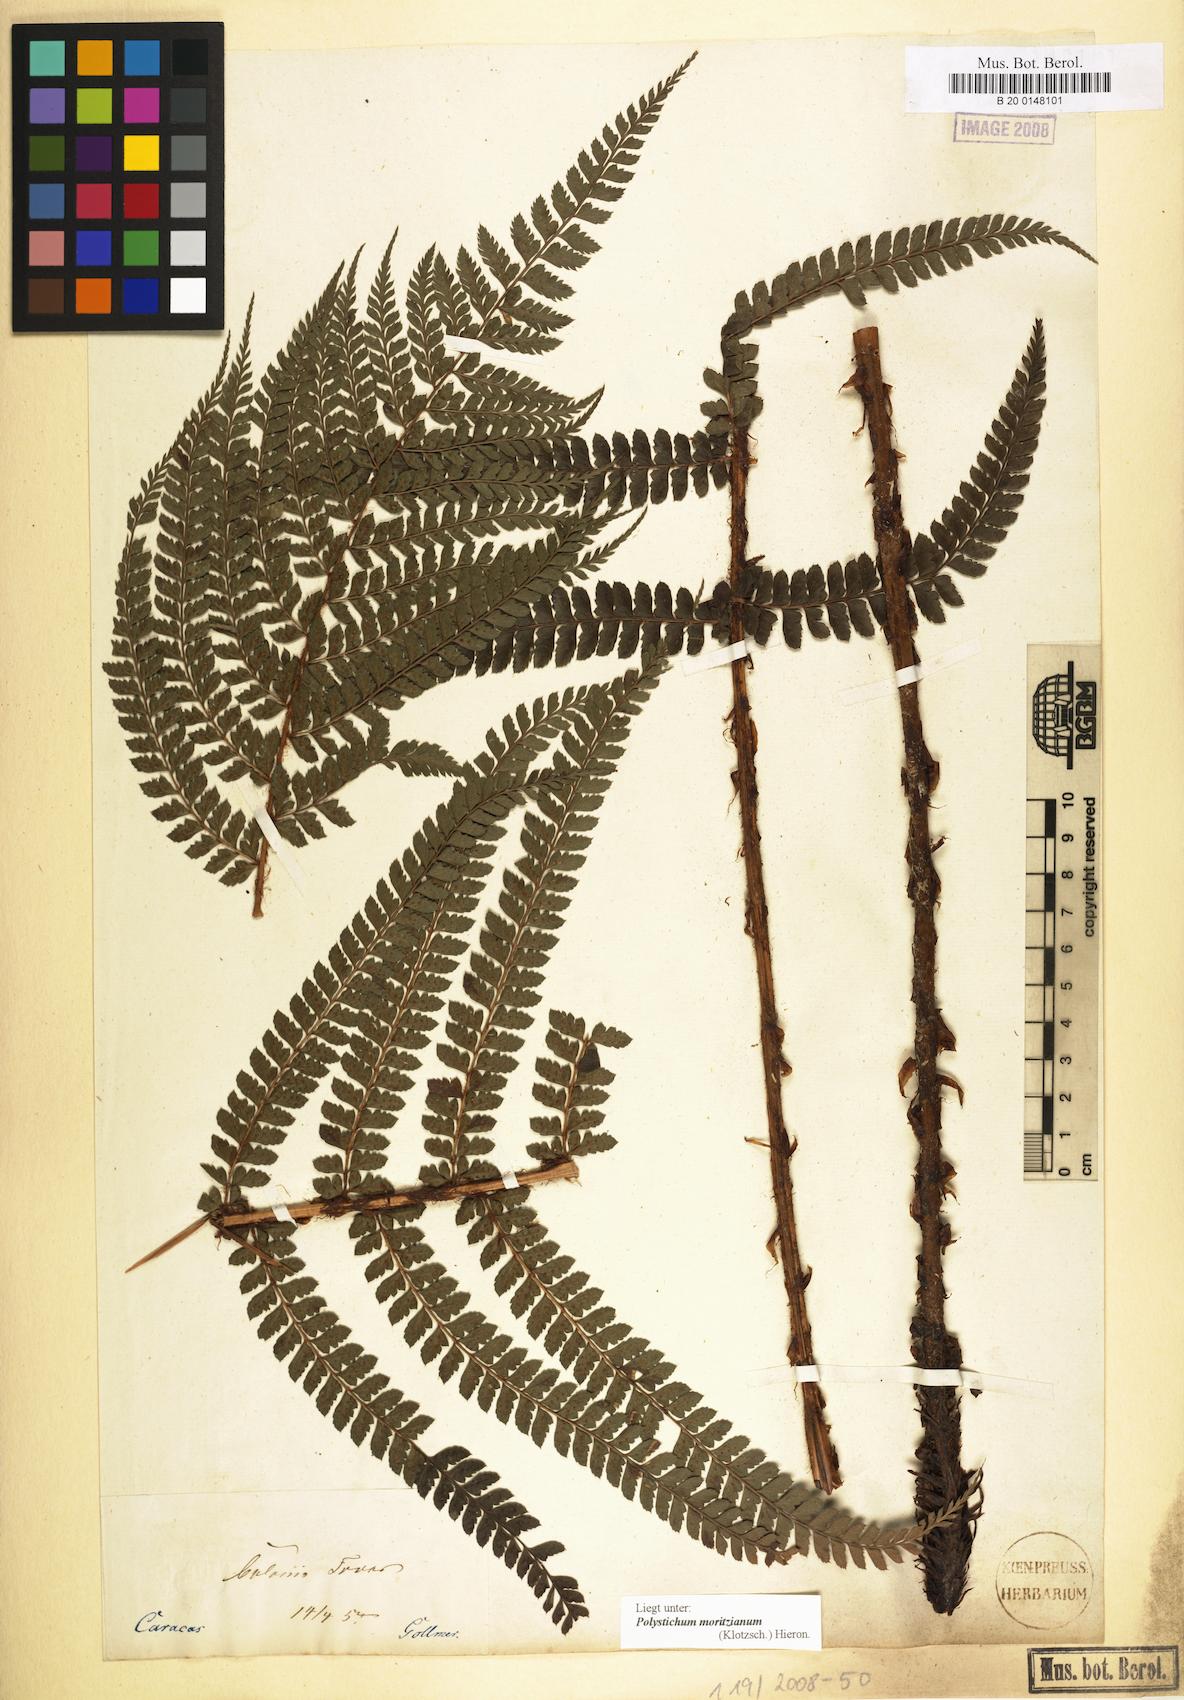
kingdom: Plantae
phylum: Tracheophyta
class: Polypodiopsida
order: Polypodiales
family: Dryopteridaceae
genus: Polystichum
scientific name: Polystichum muricatum
